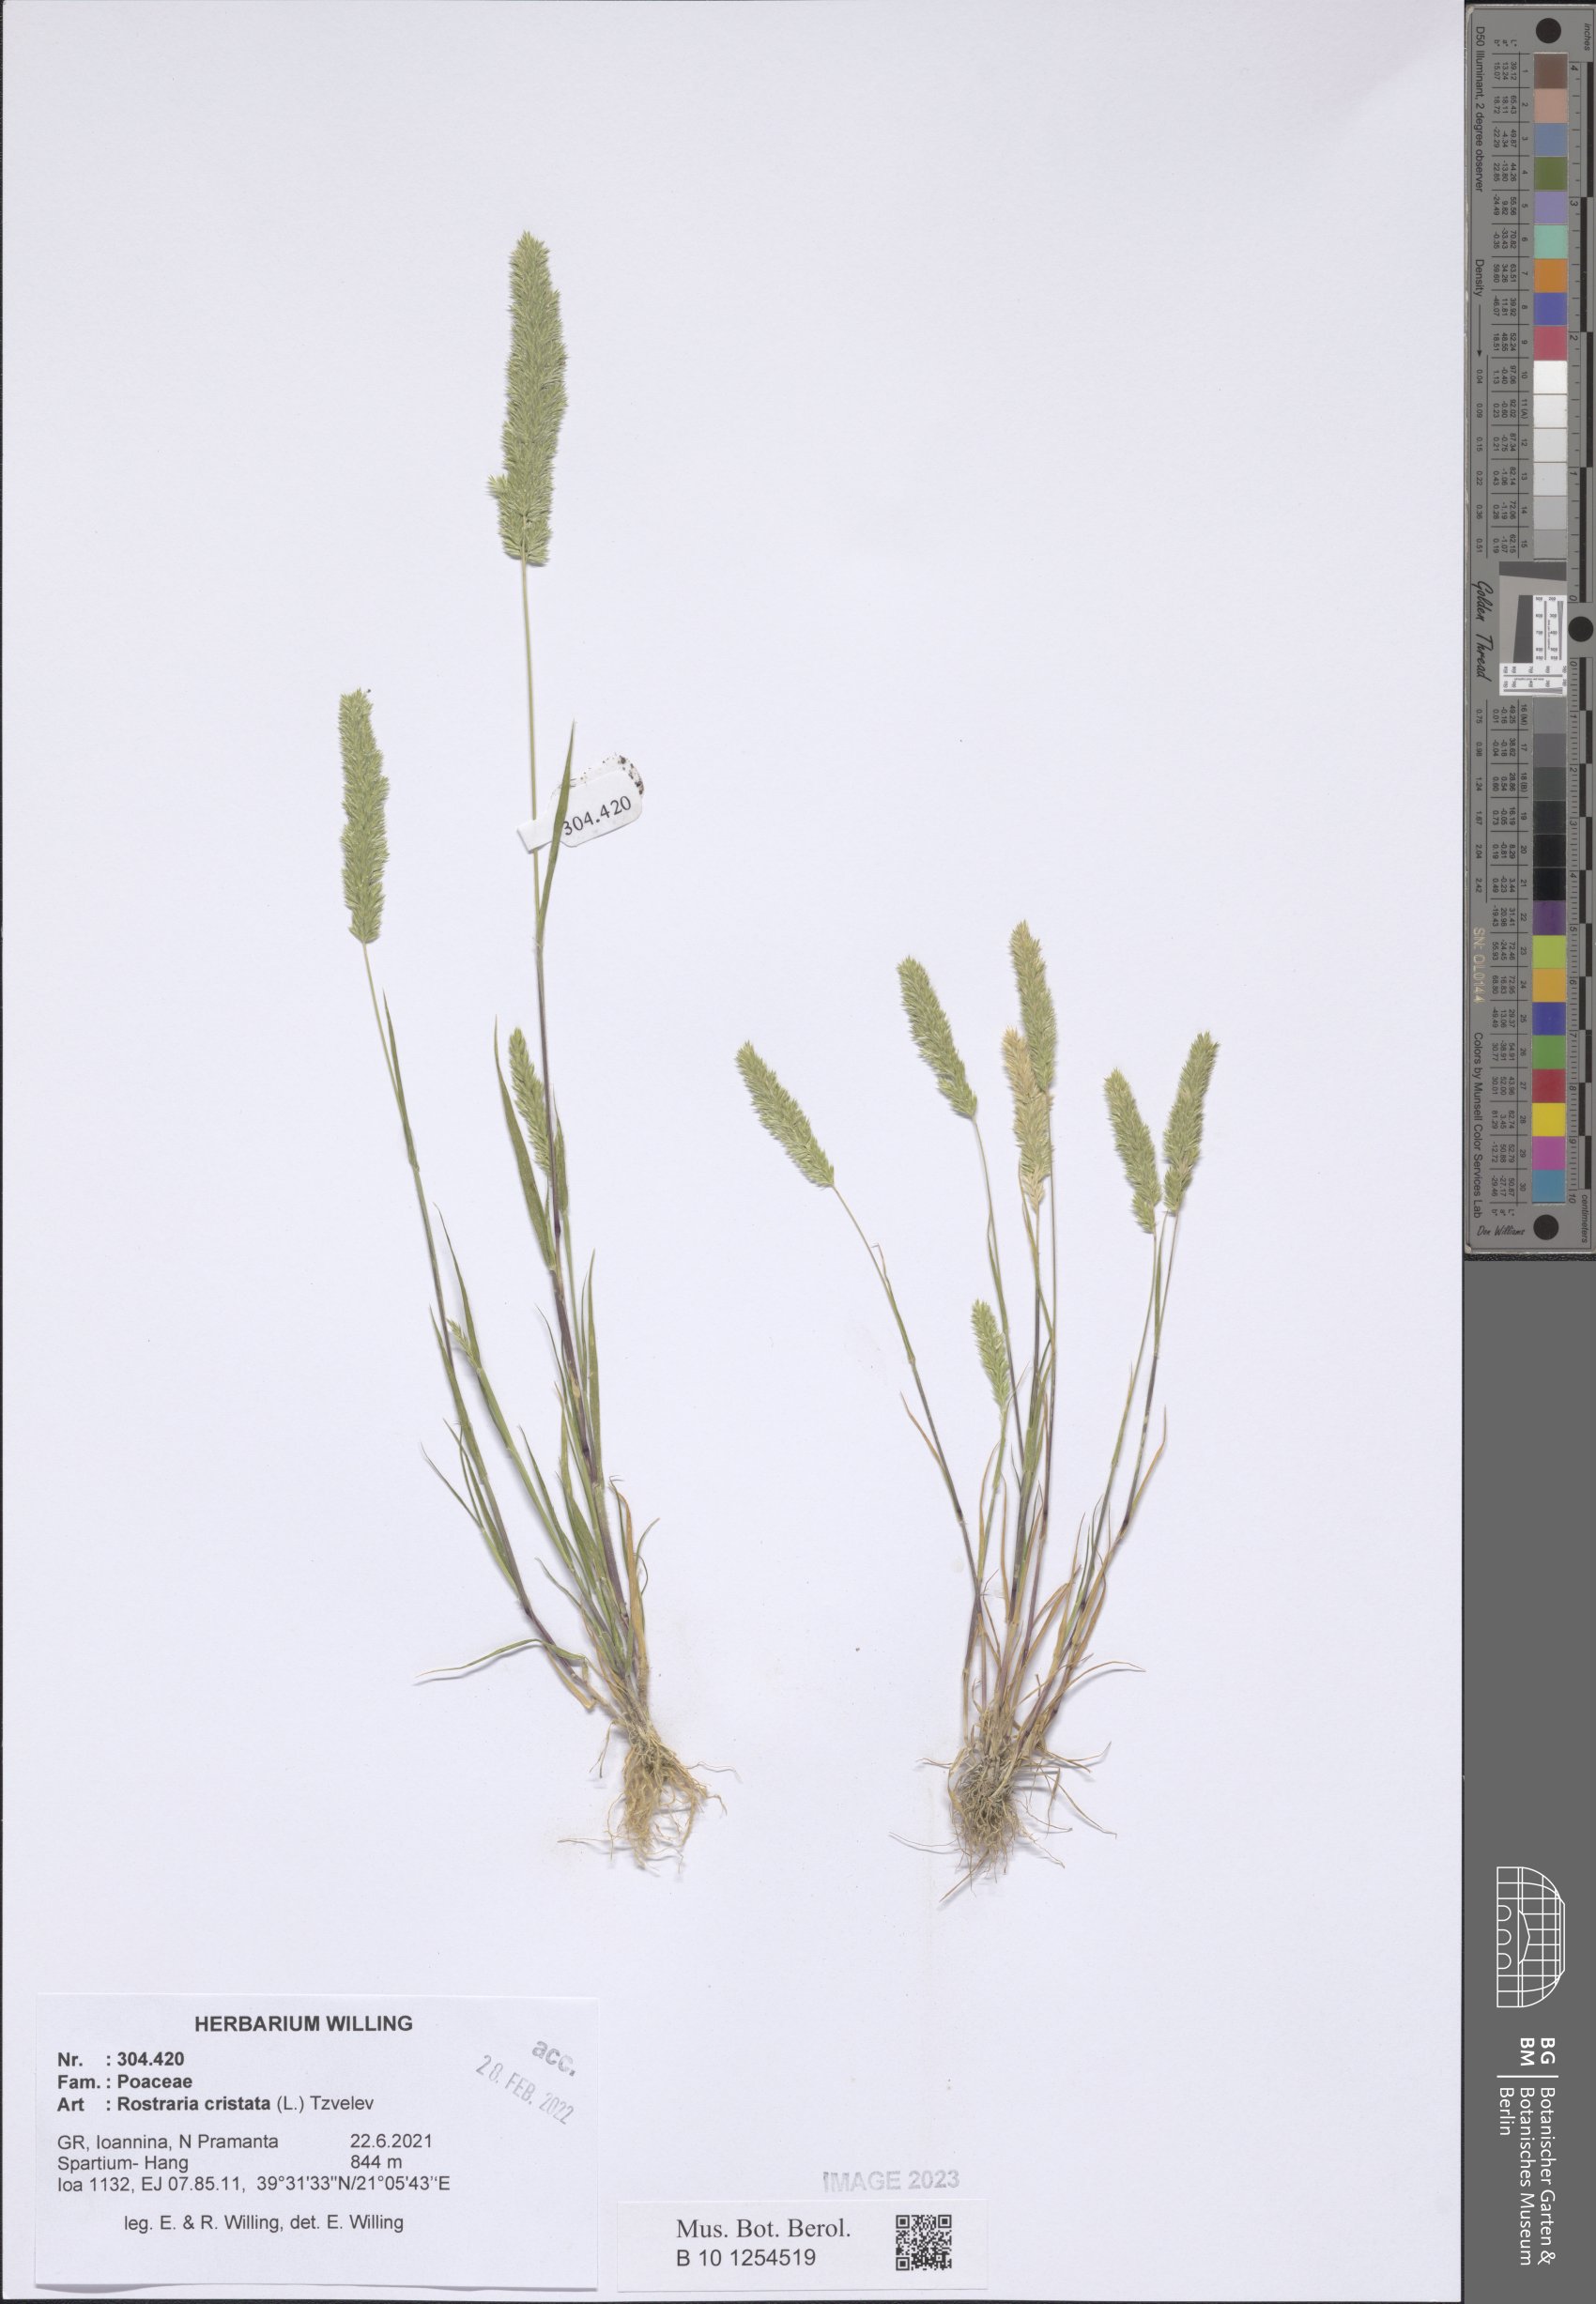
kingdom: Plantae
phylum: Tracheophyta
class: Liliopsida
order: Poales
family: Poaceae
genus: Rostraria
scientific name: Rostraria cristata
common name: Mediterranean hair-grass
